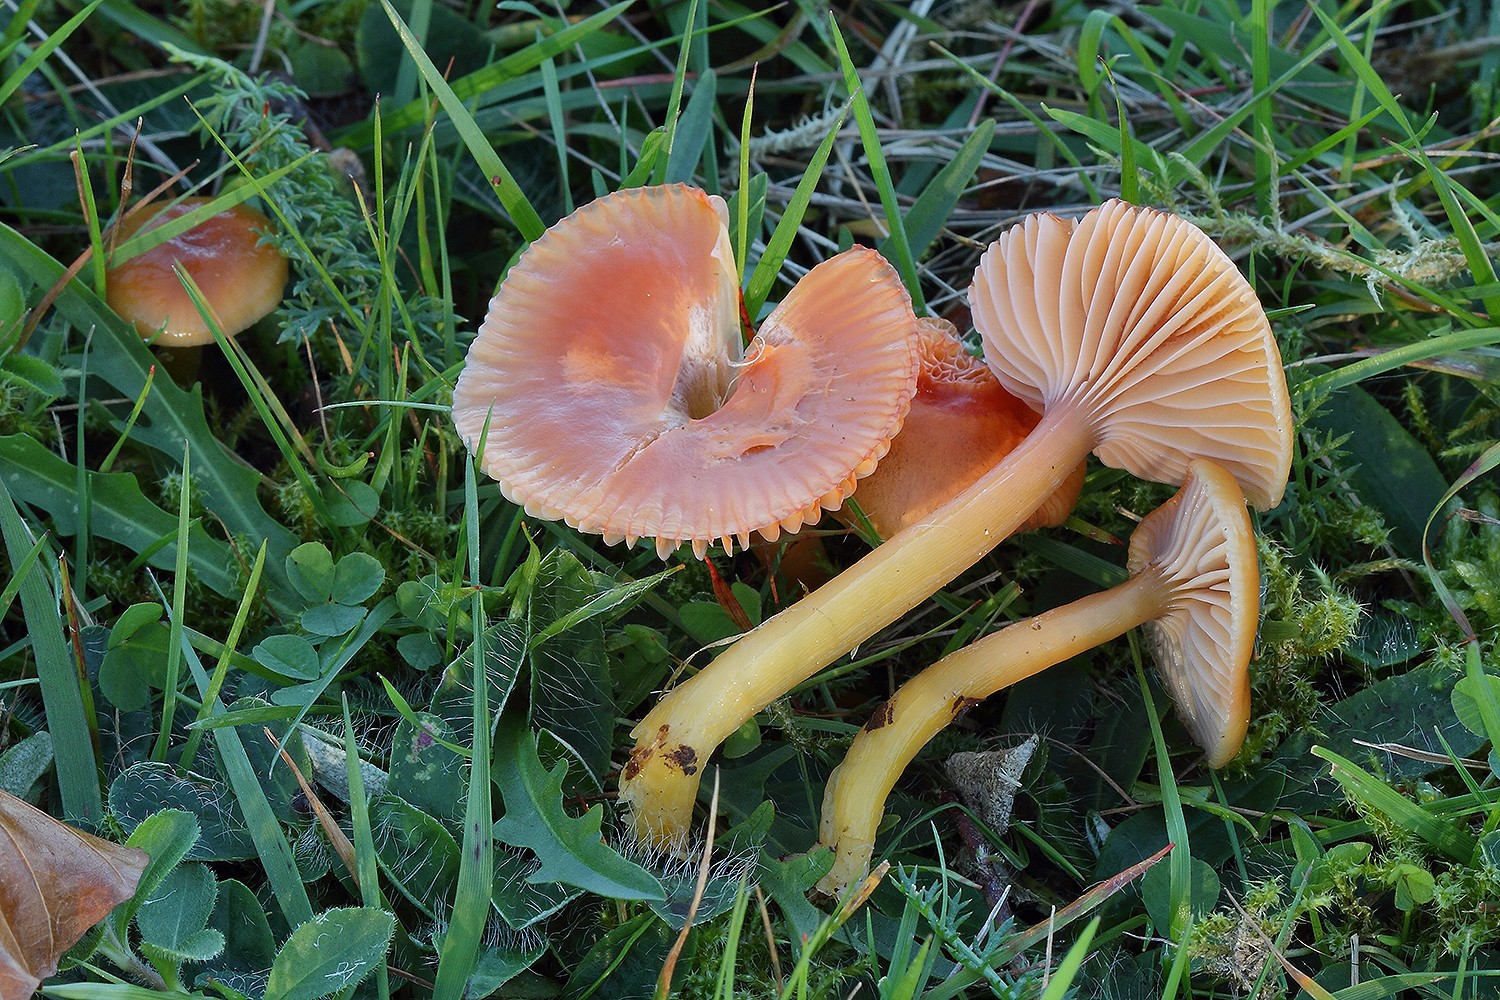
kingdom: Fungi
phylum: Basidiomycota
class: Agaricomycetes
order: Agaricales
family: Hygrophoraceae
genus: Gliophorus
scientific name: Gliophorus laetus
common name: brusk-vokshat
